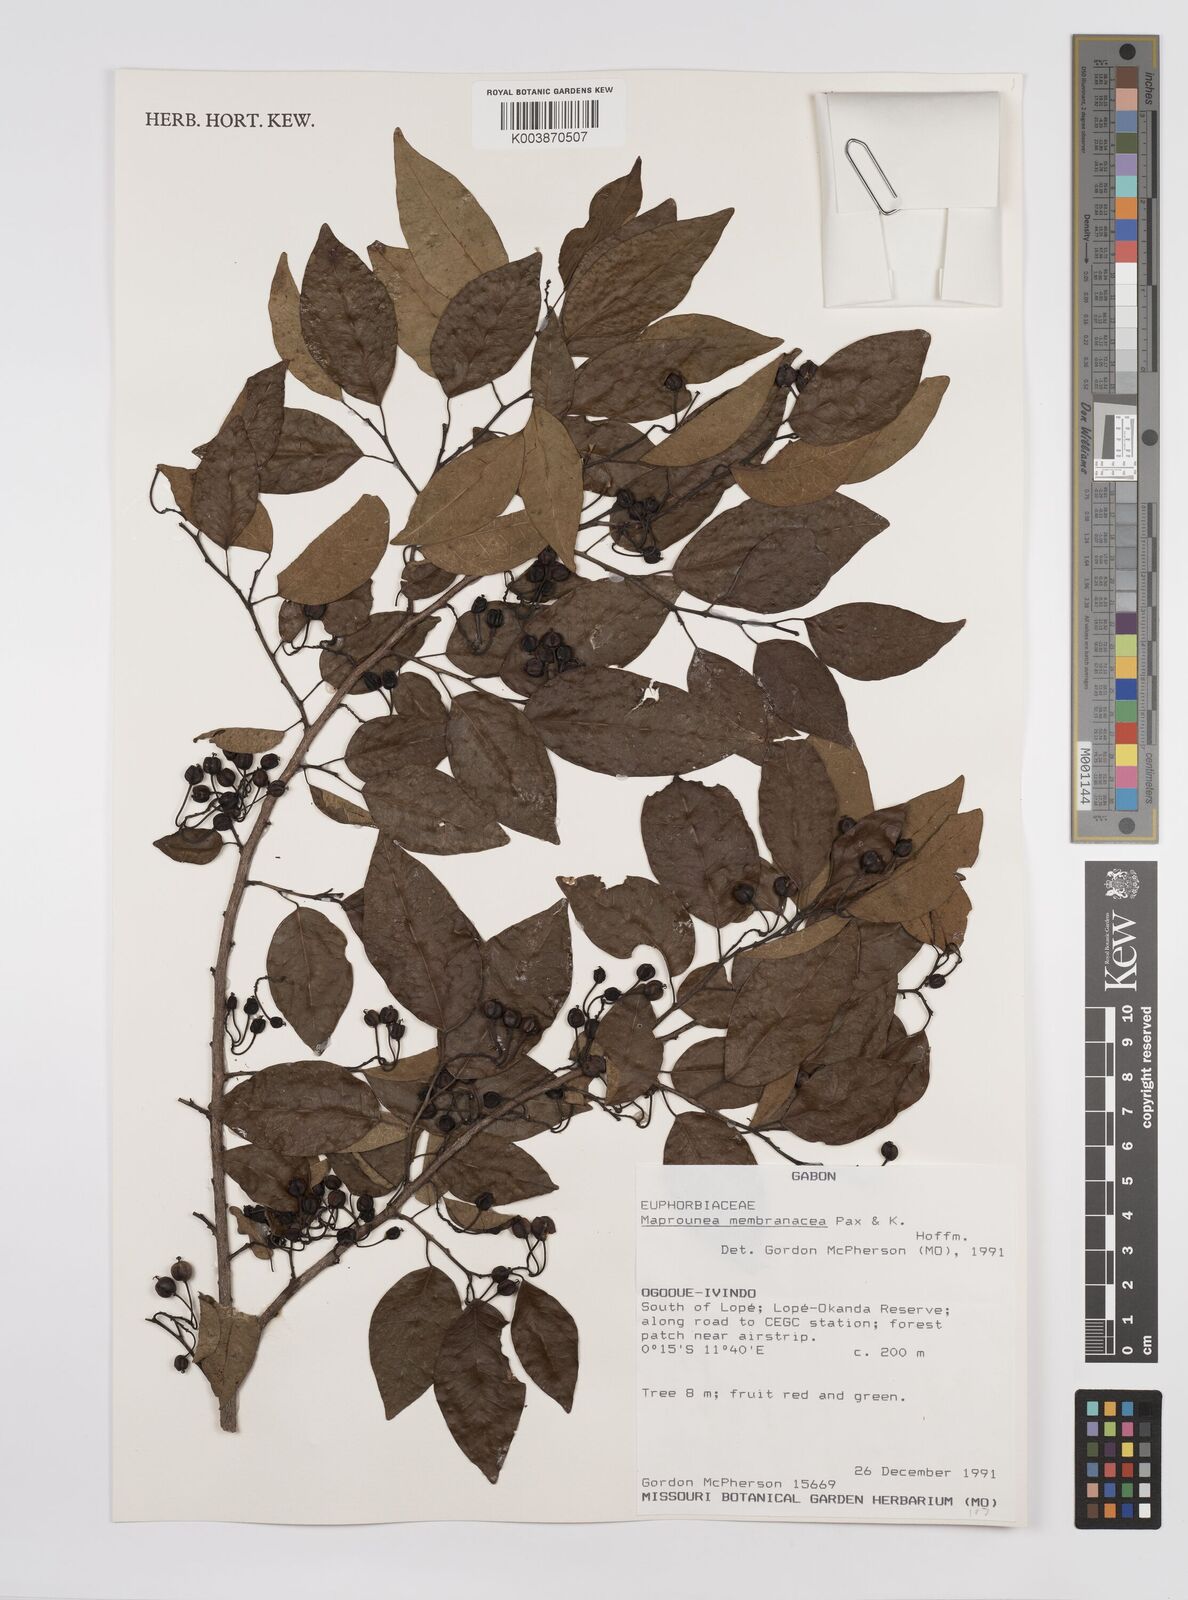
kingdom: Plantae
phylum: Tracheophyta
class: Magnoliopsida
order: Malpighiales
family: Euphorbiaceae
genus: Maprounea
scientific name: Maprounea membranacea
